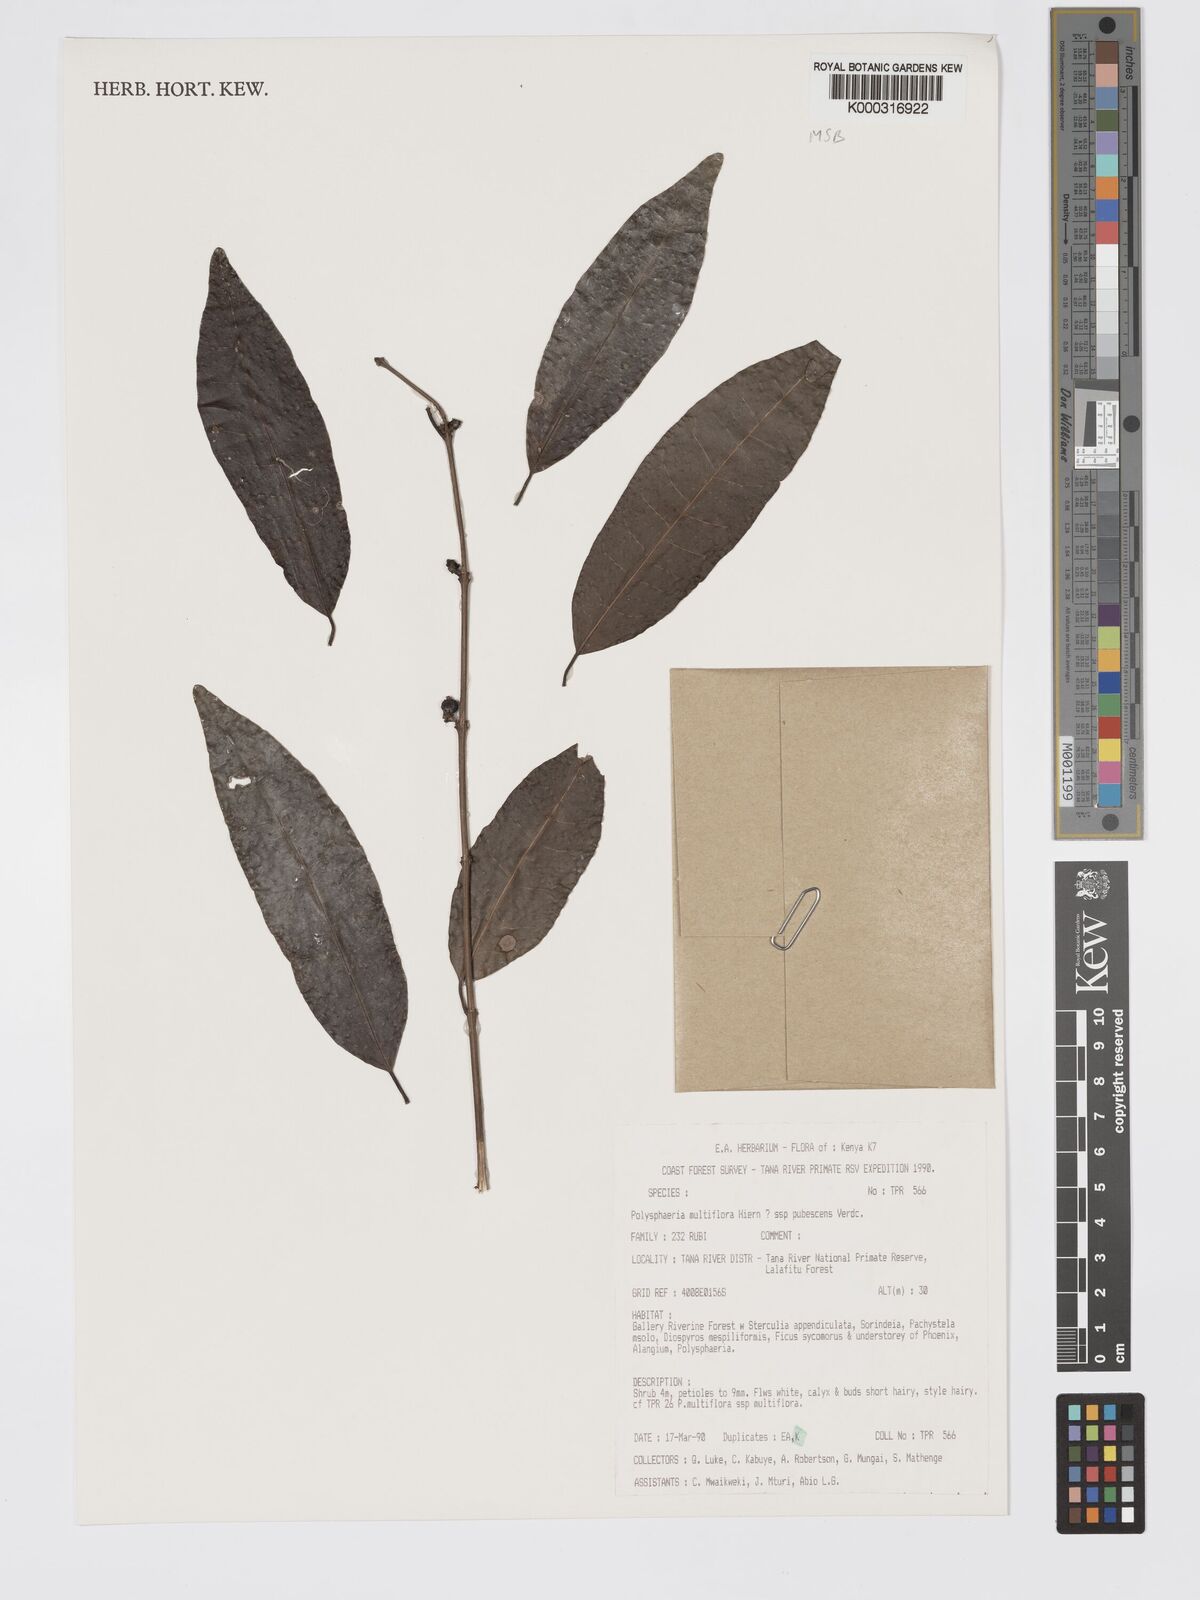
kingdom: Plantae
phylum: Tracheophyta
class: Magnoliopsida
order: Gentianales
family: Rubiaceae
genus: Polysphaeria
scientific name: Polysphaeria multiflora
